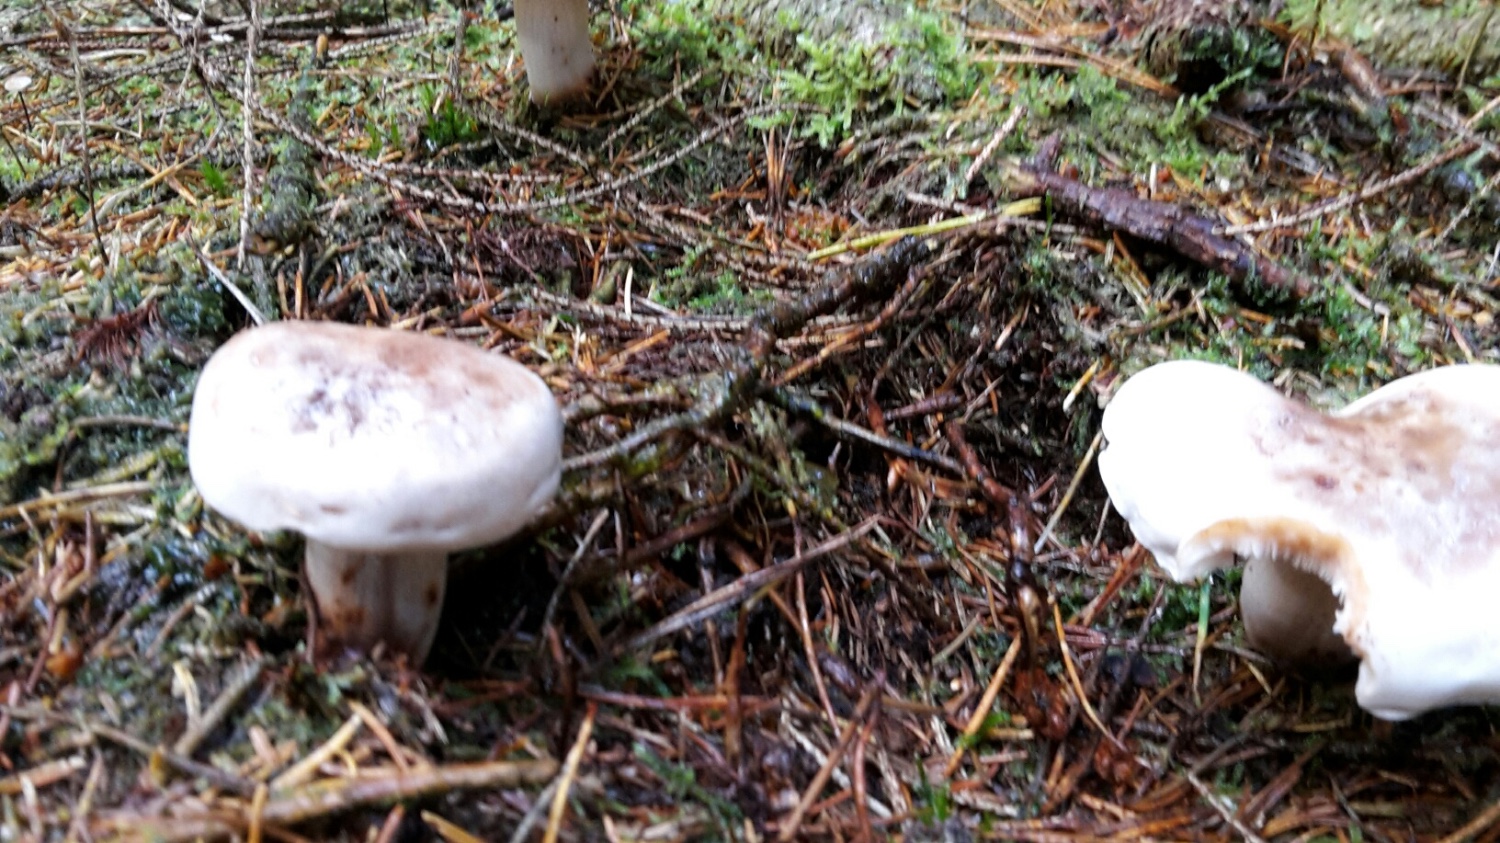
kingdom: Fungi
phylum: Basidiomycota
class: Agaricomycetes
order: Agaricales
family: Omphalotaceae
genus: Rhodocollybia
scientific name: Rhodocollybia maculata
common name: plettet fladhat
